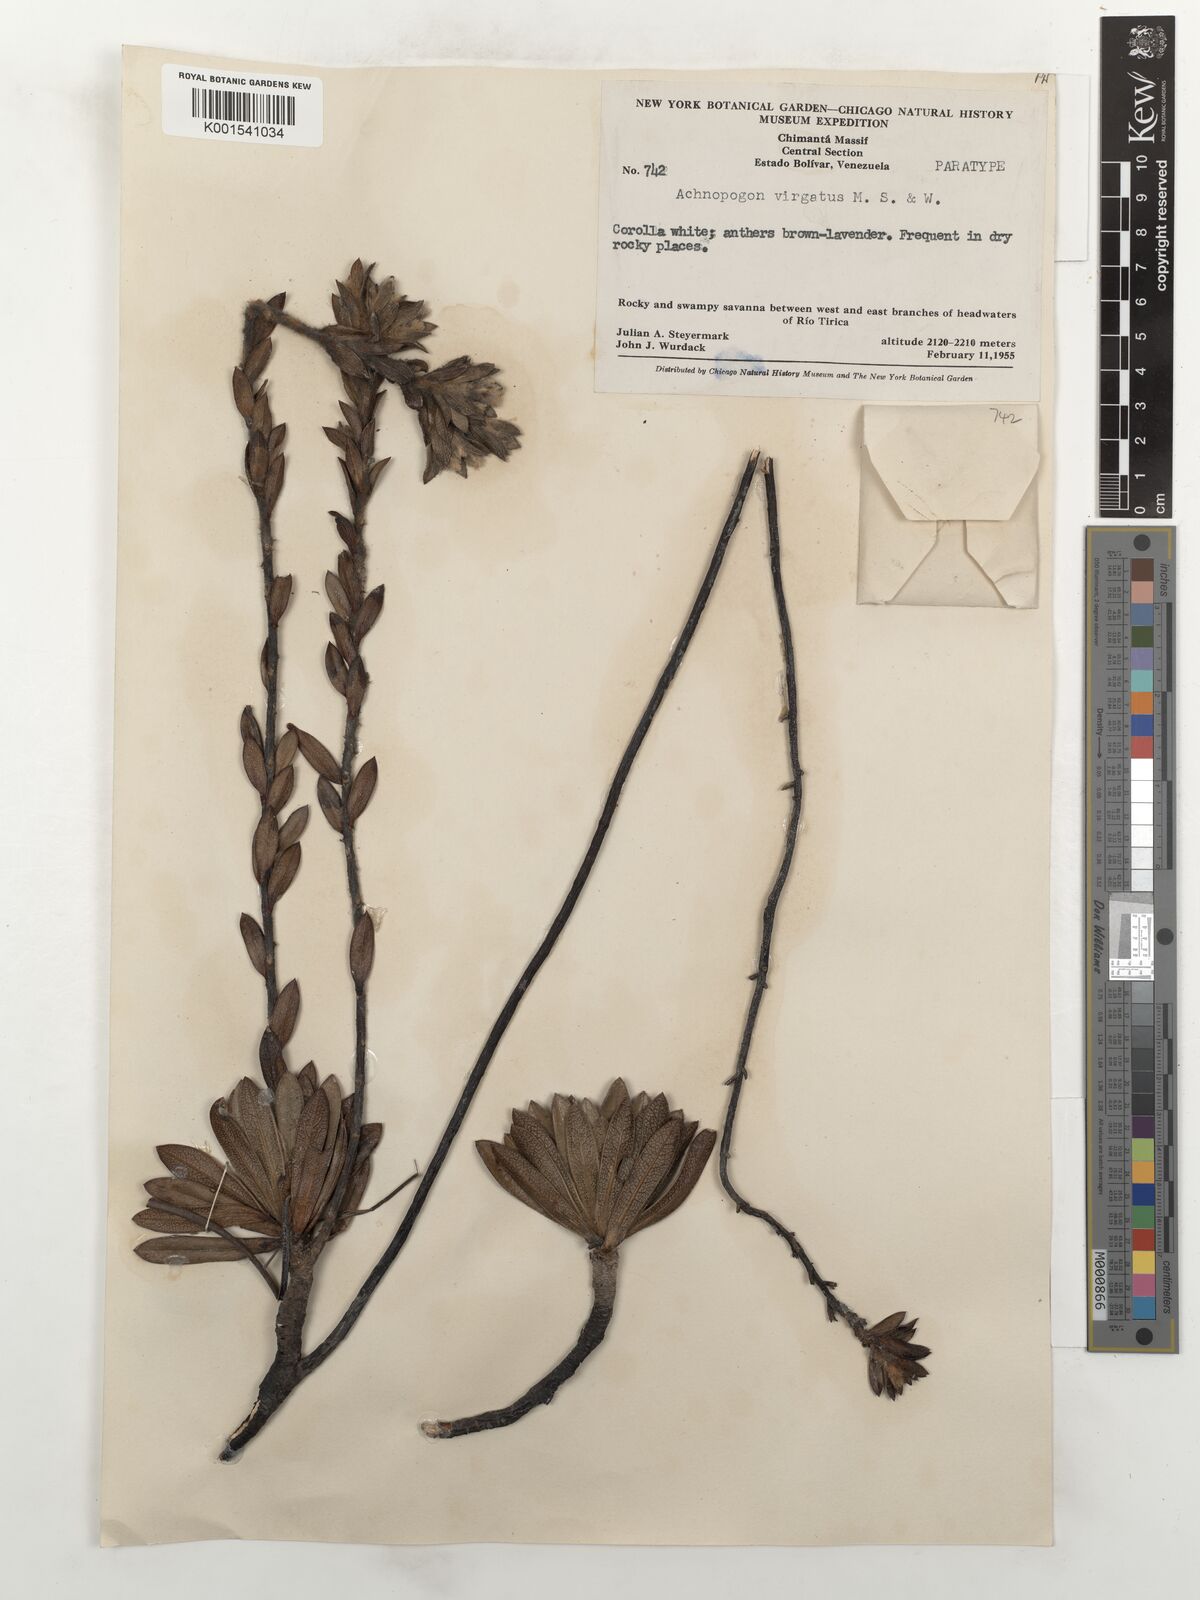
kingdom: Plantae
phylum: Tracheophyta
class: Magnoliopsida
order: Asterales
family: Asteraceae
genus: Achnopogon
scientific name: Achnopogon virgatus
